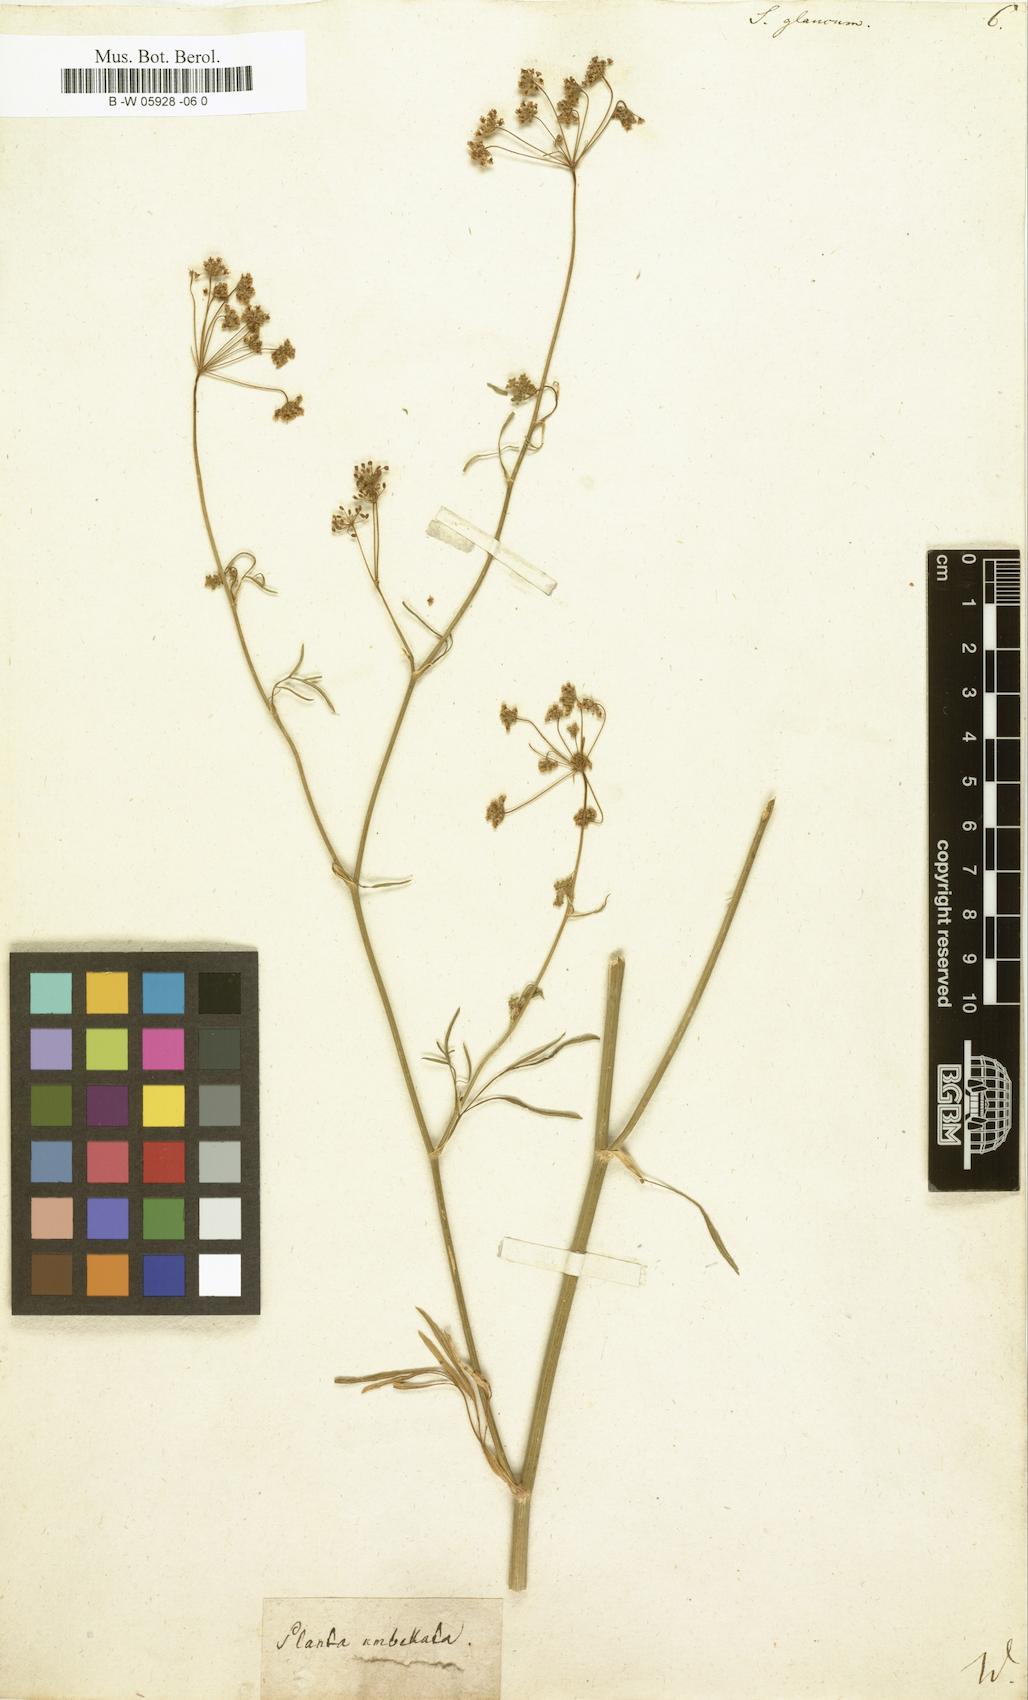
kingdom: Plantae
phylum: Tracheophyta
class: Magnoliopsida
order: Apiales
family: Apiaceae
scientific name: Apiaceae
